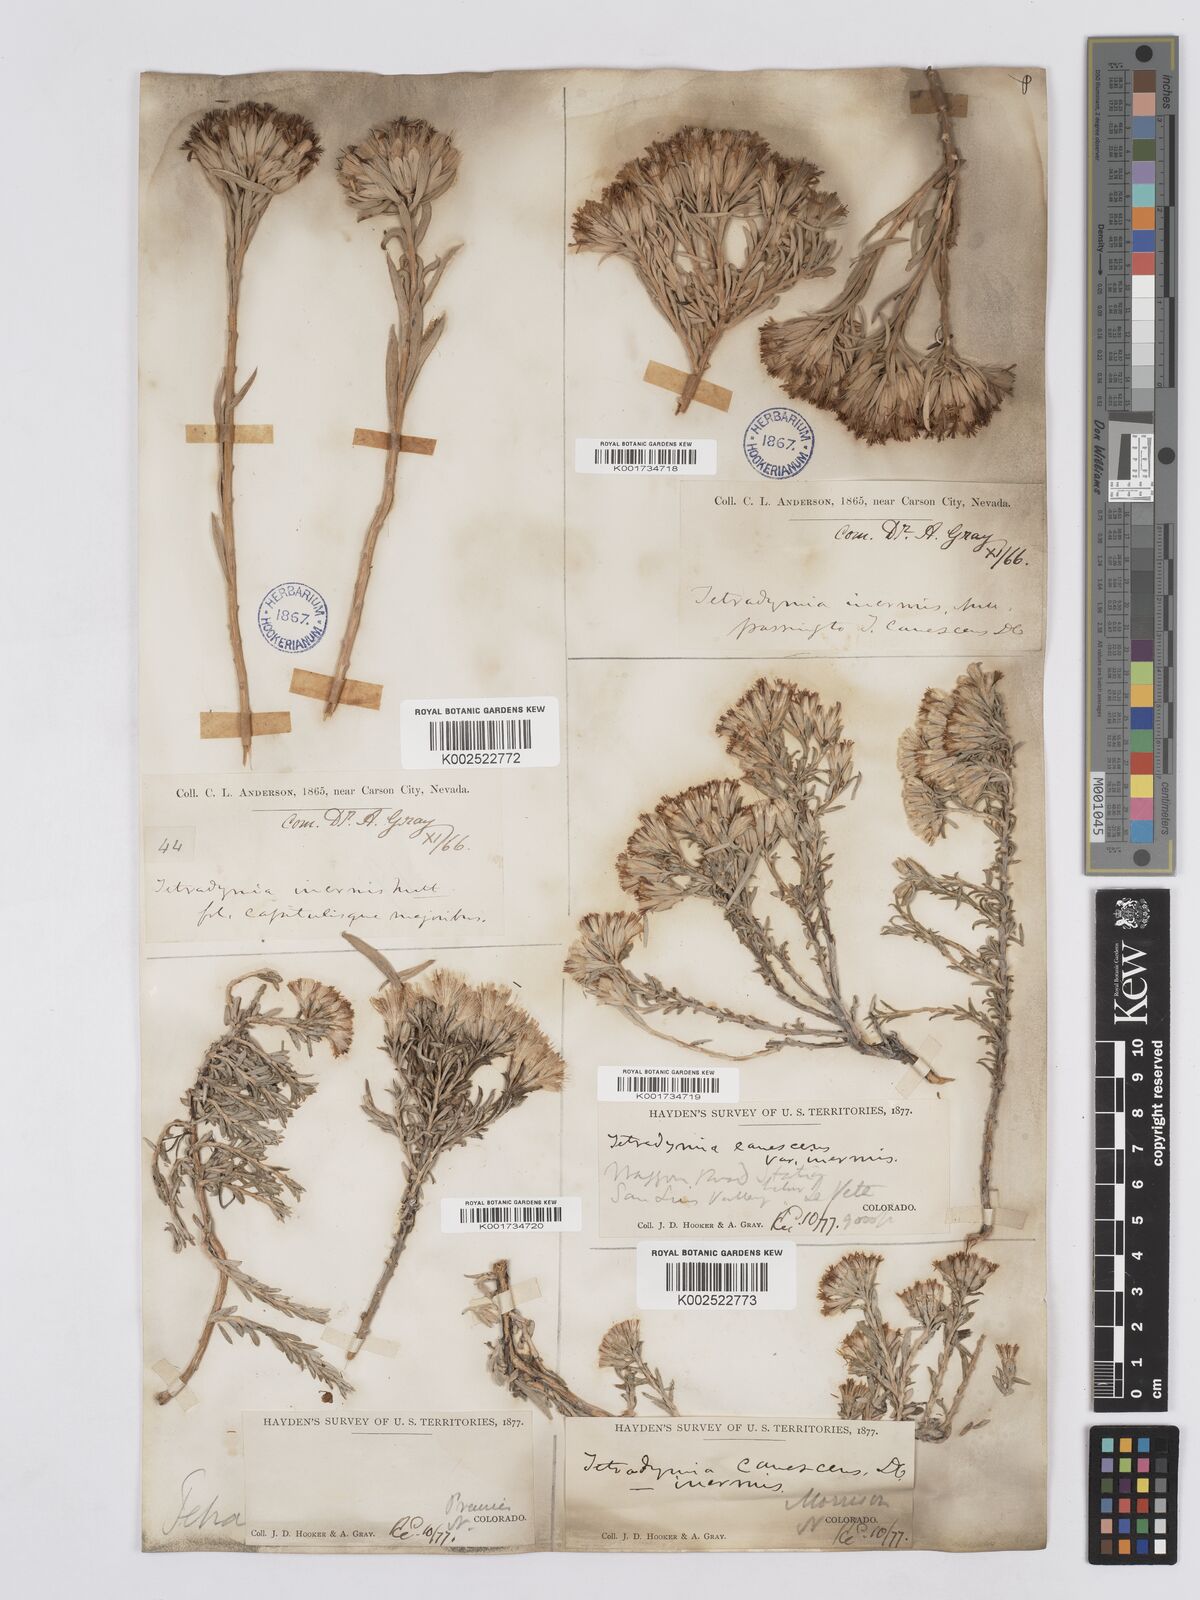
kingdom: Plantae
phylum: Tracheophyta
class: Magnoliopsida
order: Asterales
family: Asteraceae
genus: Tetradymia
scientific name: Tetradymia canescens
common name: Spineless horsebrush
